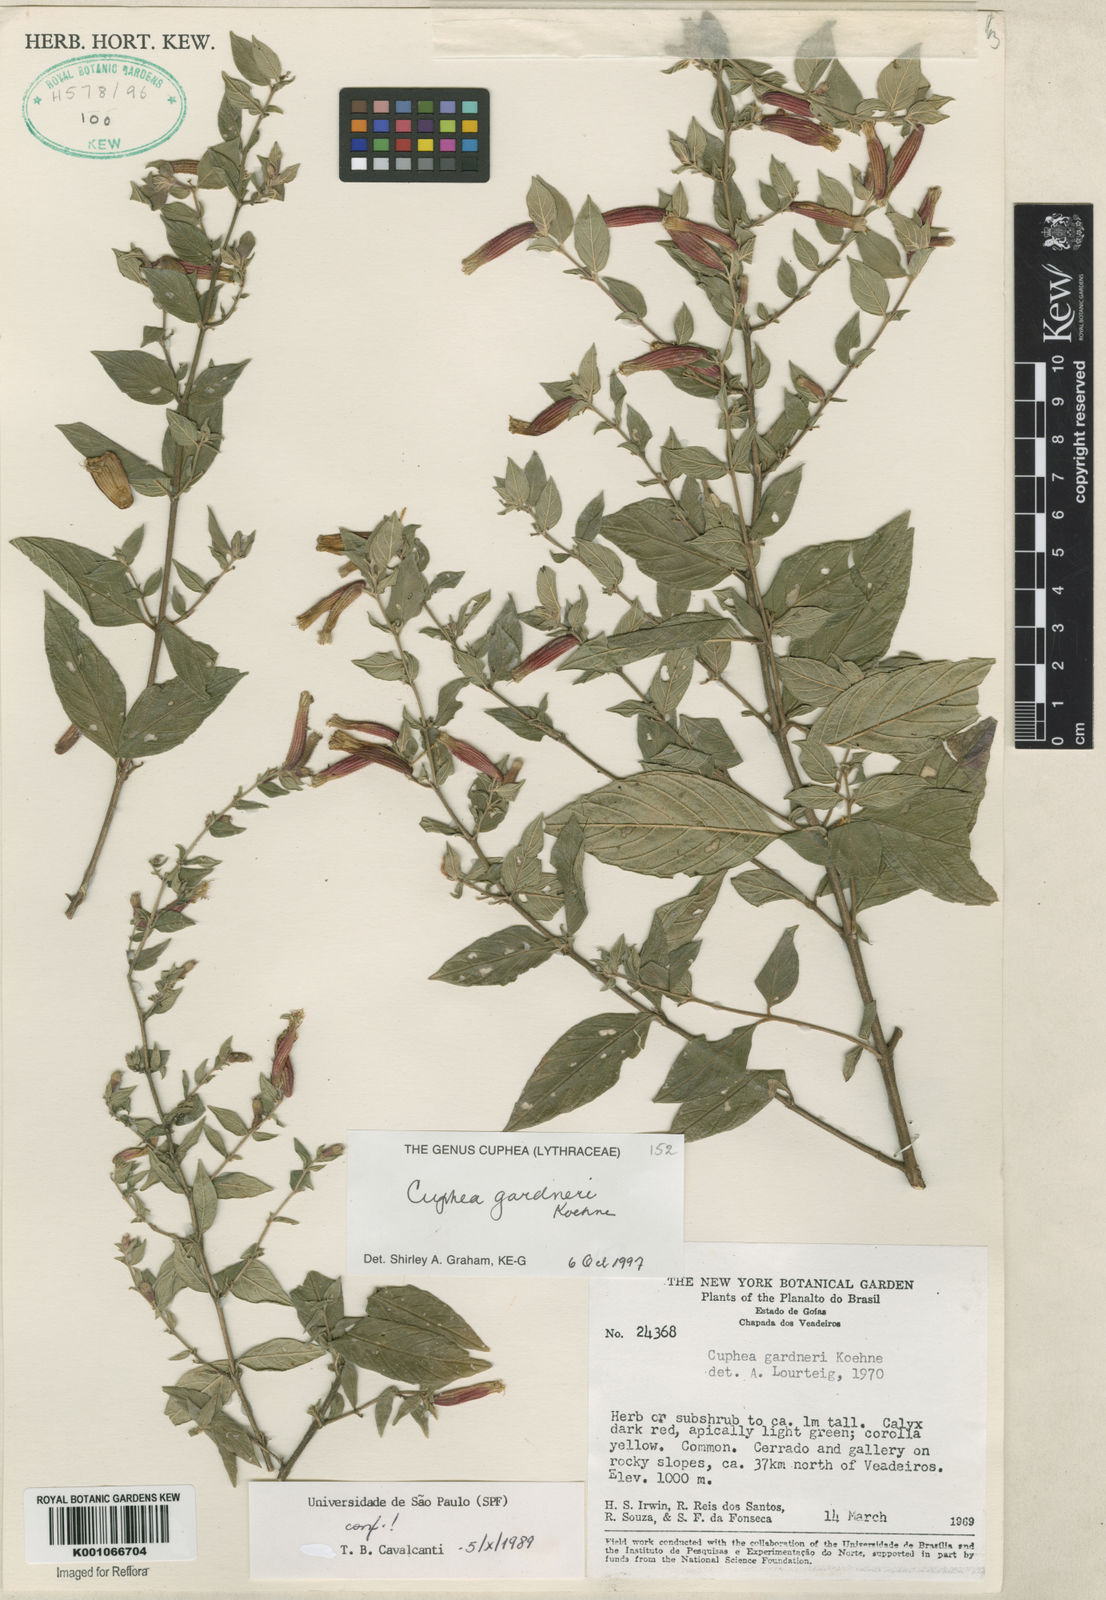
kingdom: Plantae
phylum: Tracheophyta
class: Magnoliopsida
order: Myrtales
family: Lythraceae
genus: Cuphea
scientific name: Cuphea grandiflora
